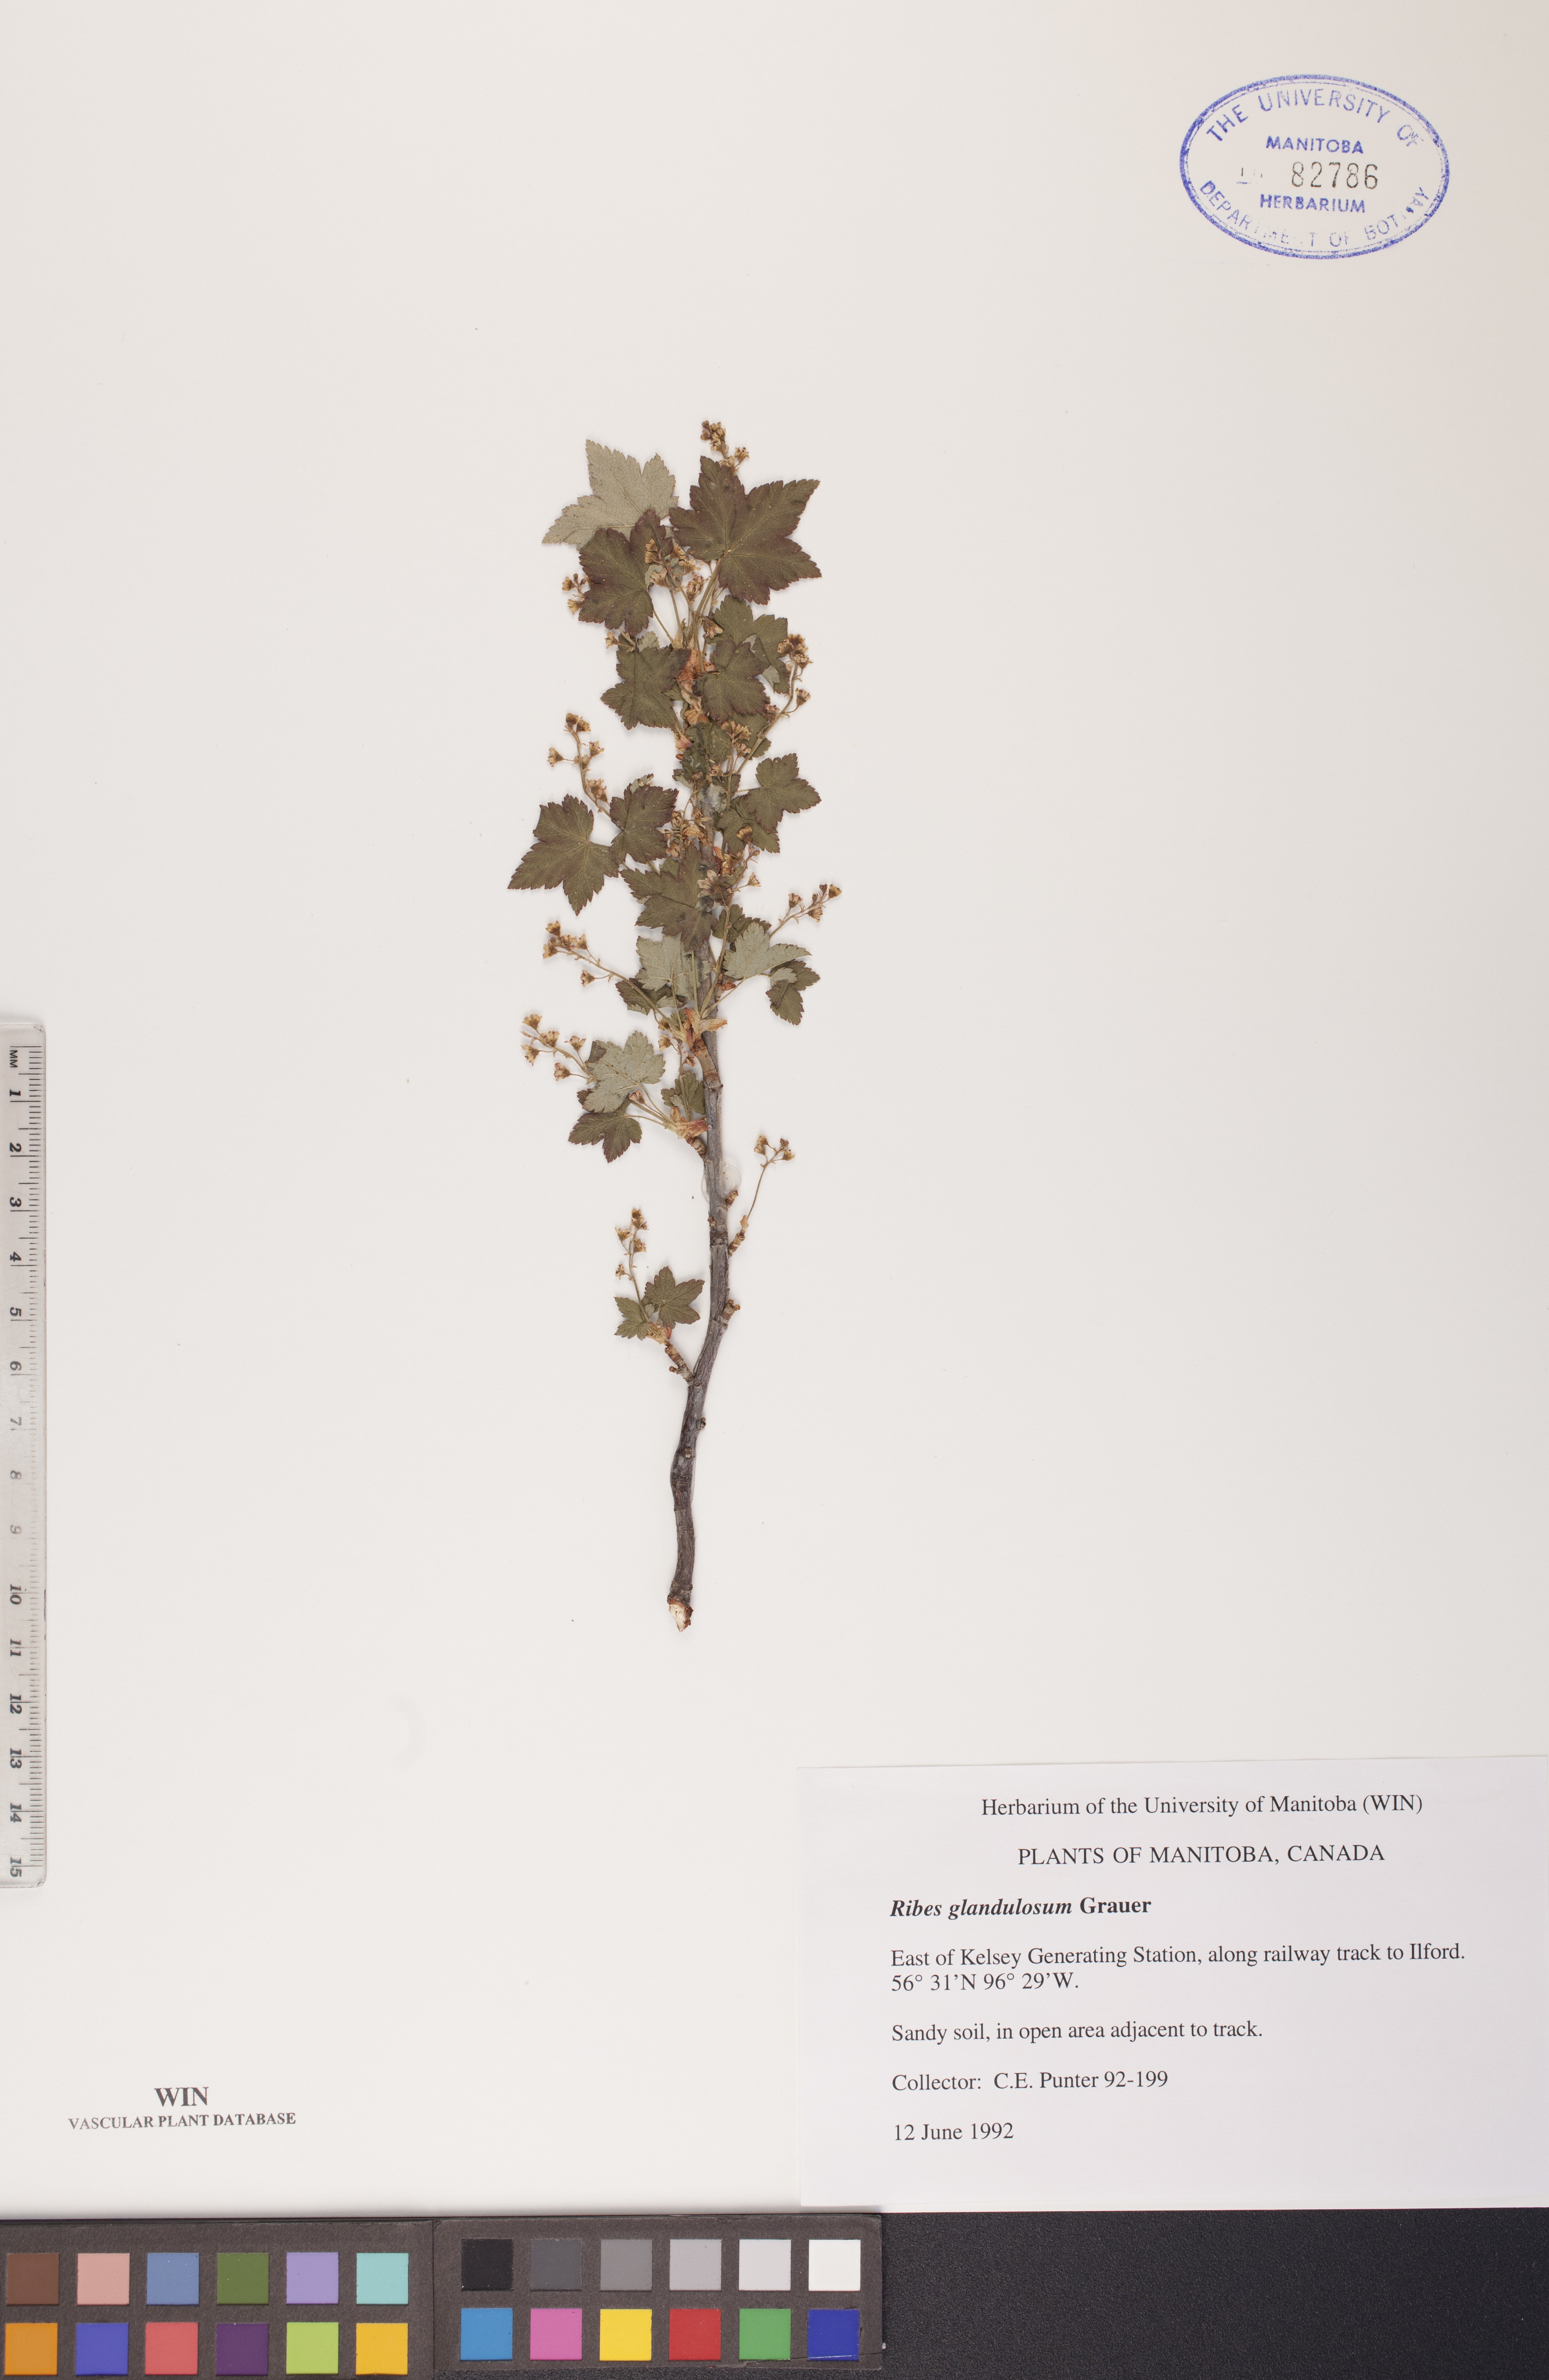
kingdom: Plantae
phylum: Tracheophyta
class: Magnoliopsida
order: Saxifragales
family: Grossulariaceae
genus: Ribes
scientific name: Ribes glandulosum
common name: Skunk currant
